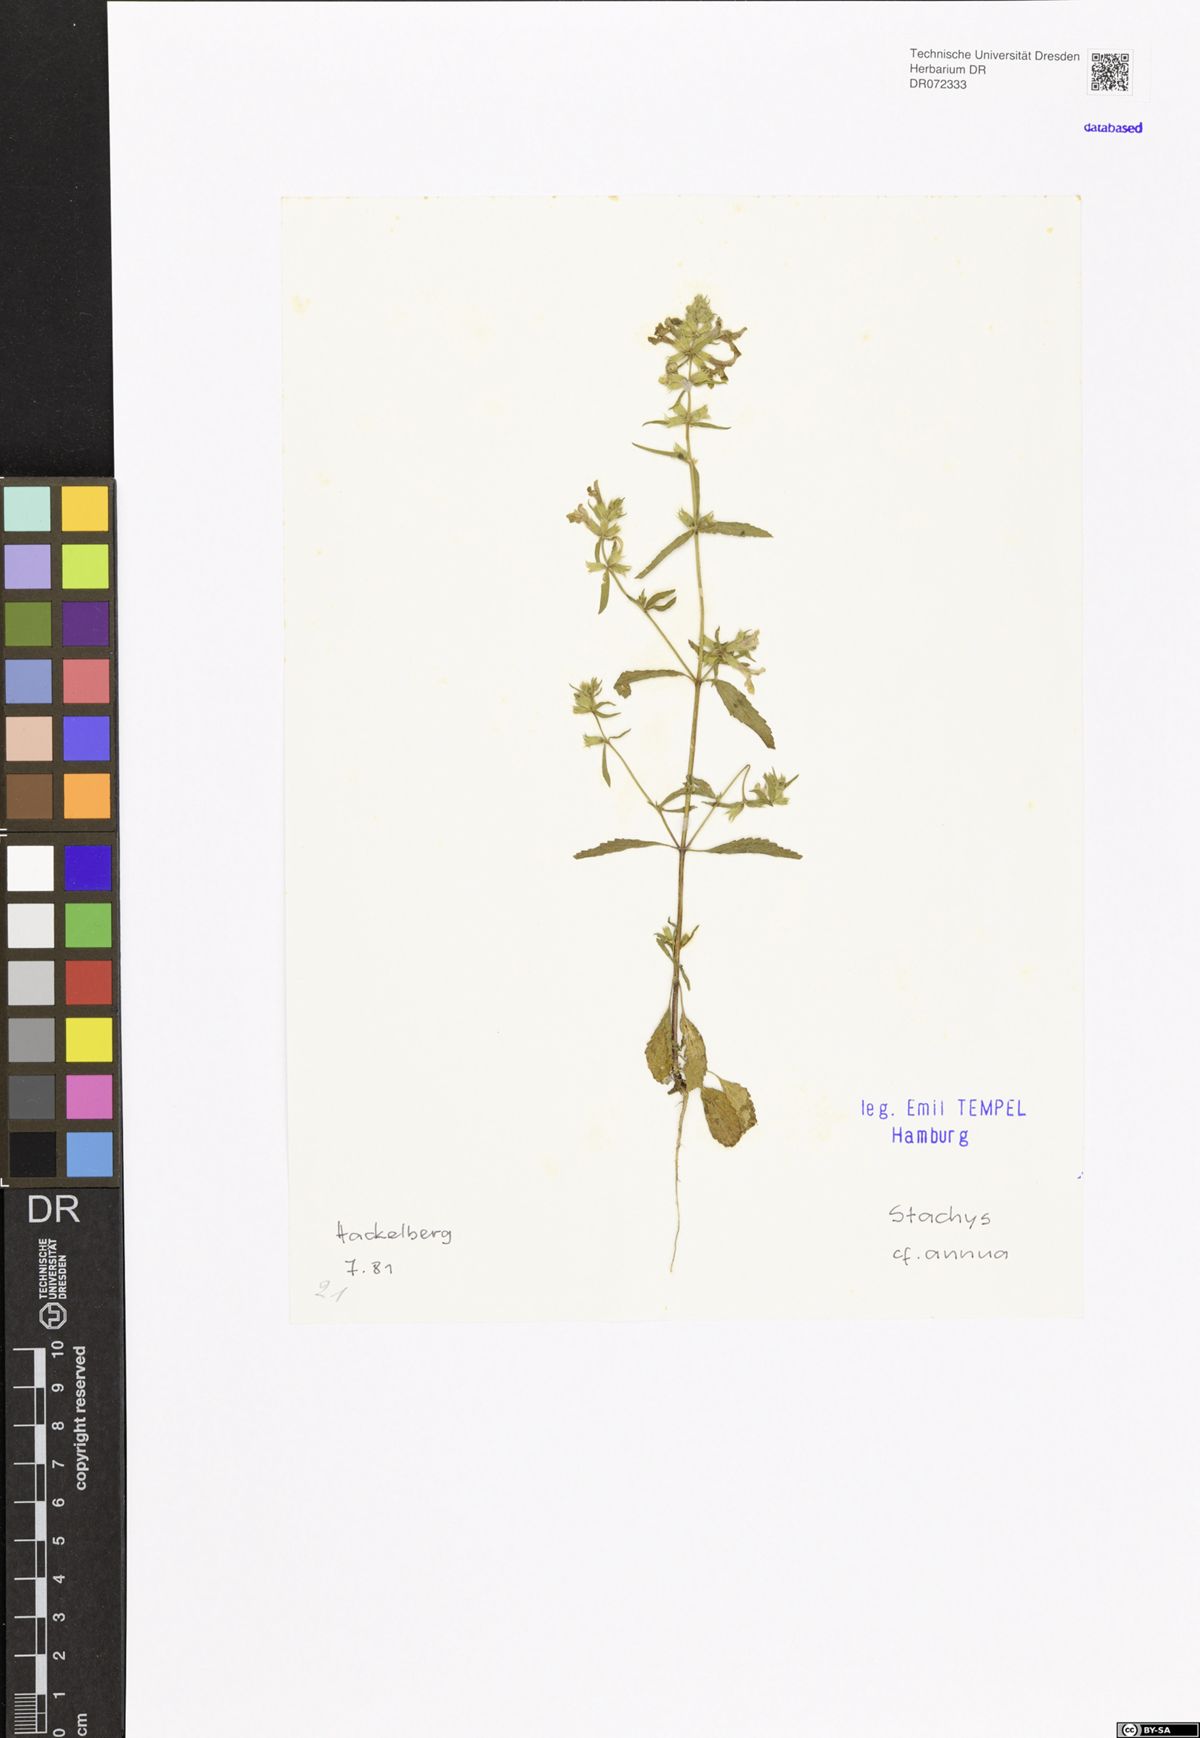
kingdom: Plantae
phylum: Tracheophyta
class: Magnoliopsida
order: Lamiales
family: Lamiaceae
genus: Stachys
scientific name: Stachys annua
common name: Annual yellow-woundwort
